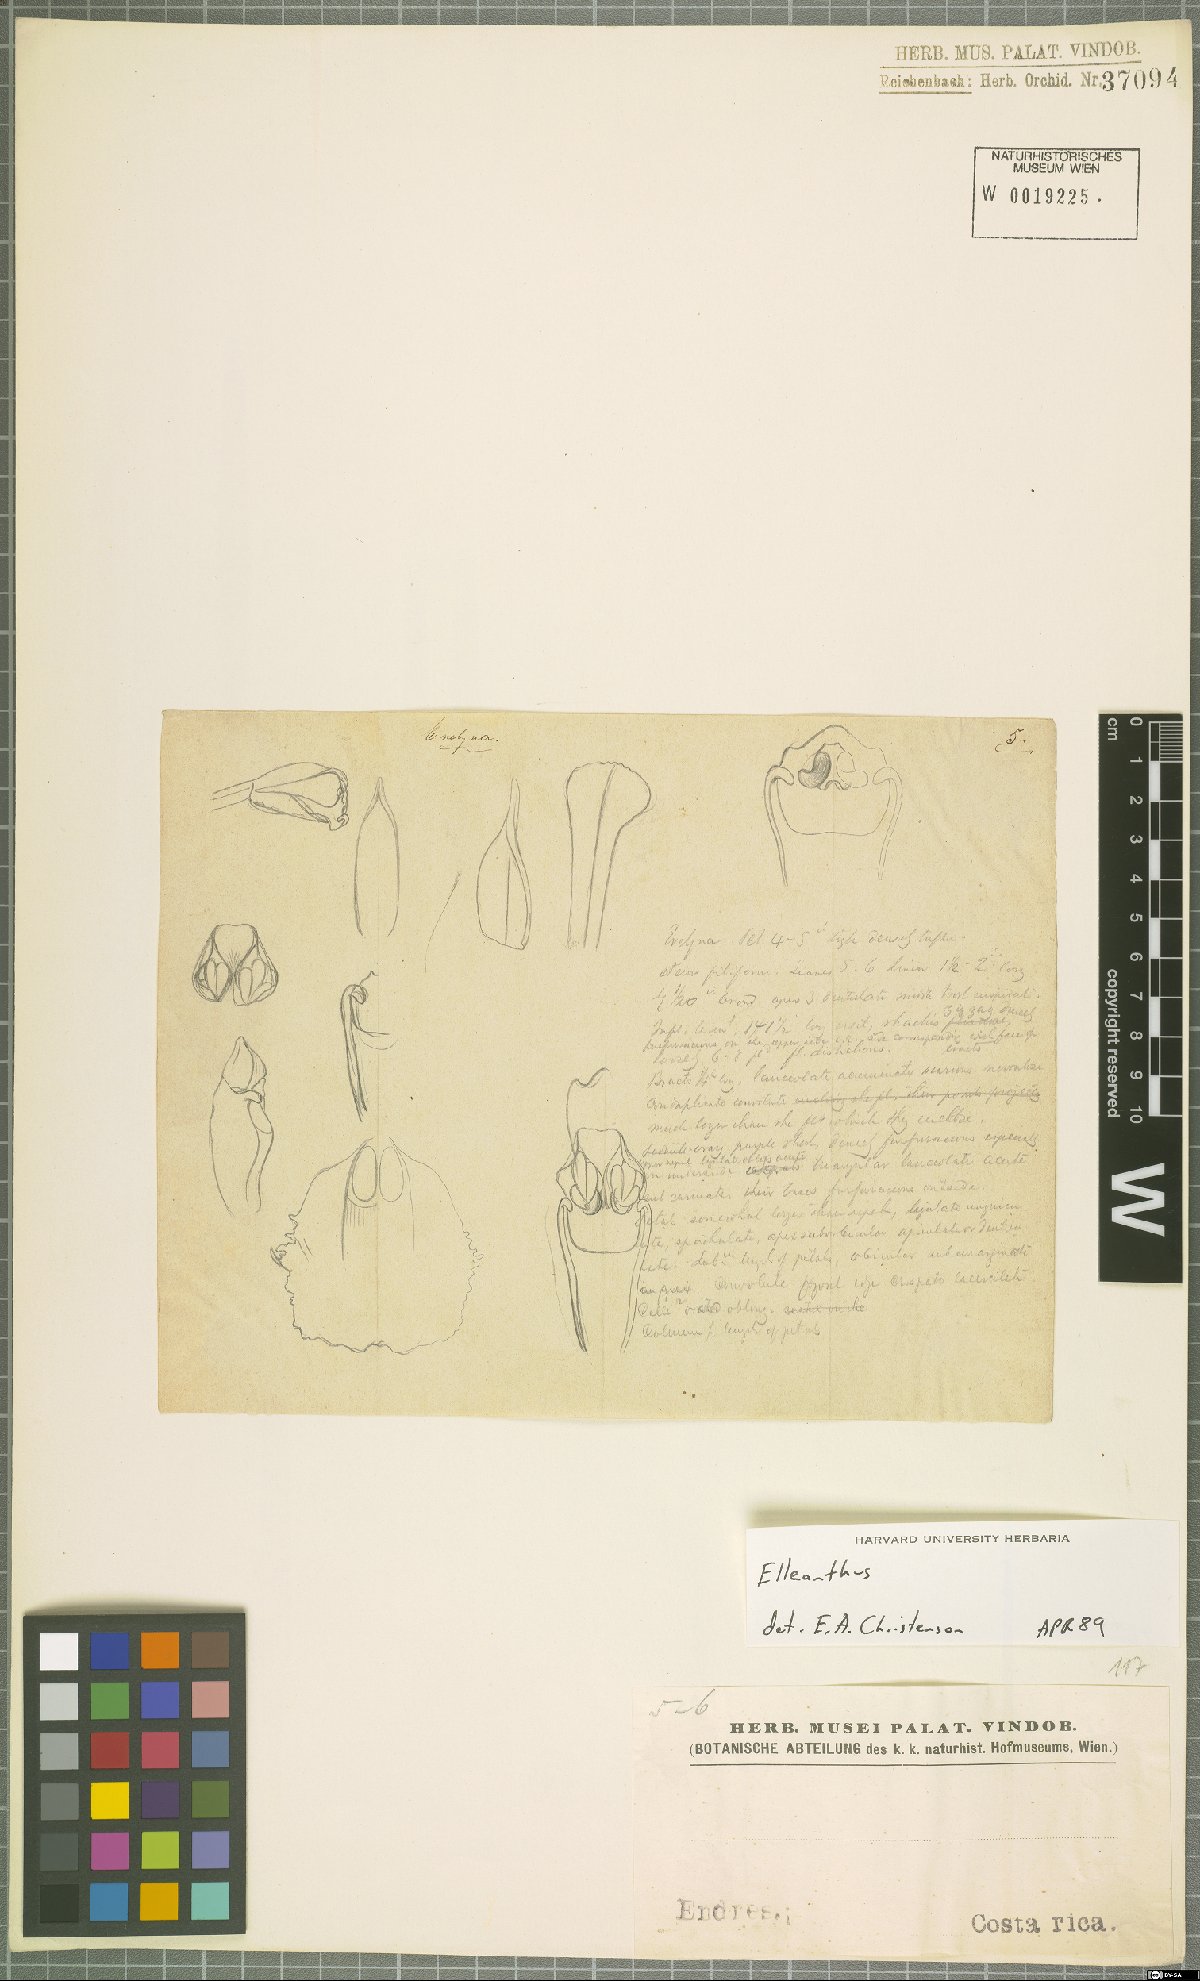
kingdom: Plantae
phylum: Tracheophyta
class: Liliopsida
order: Asparagales
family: Orchidaceae
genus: Elleanthus
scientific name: Elleanthus
